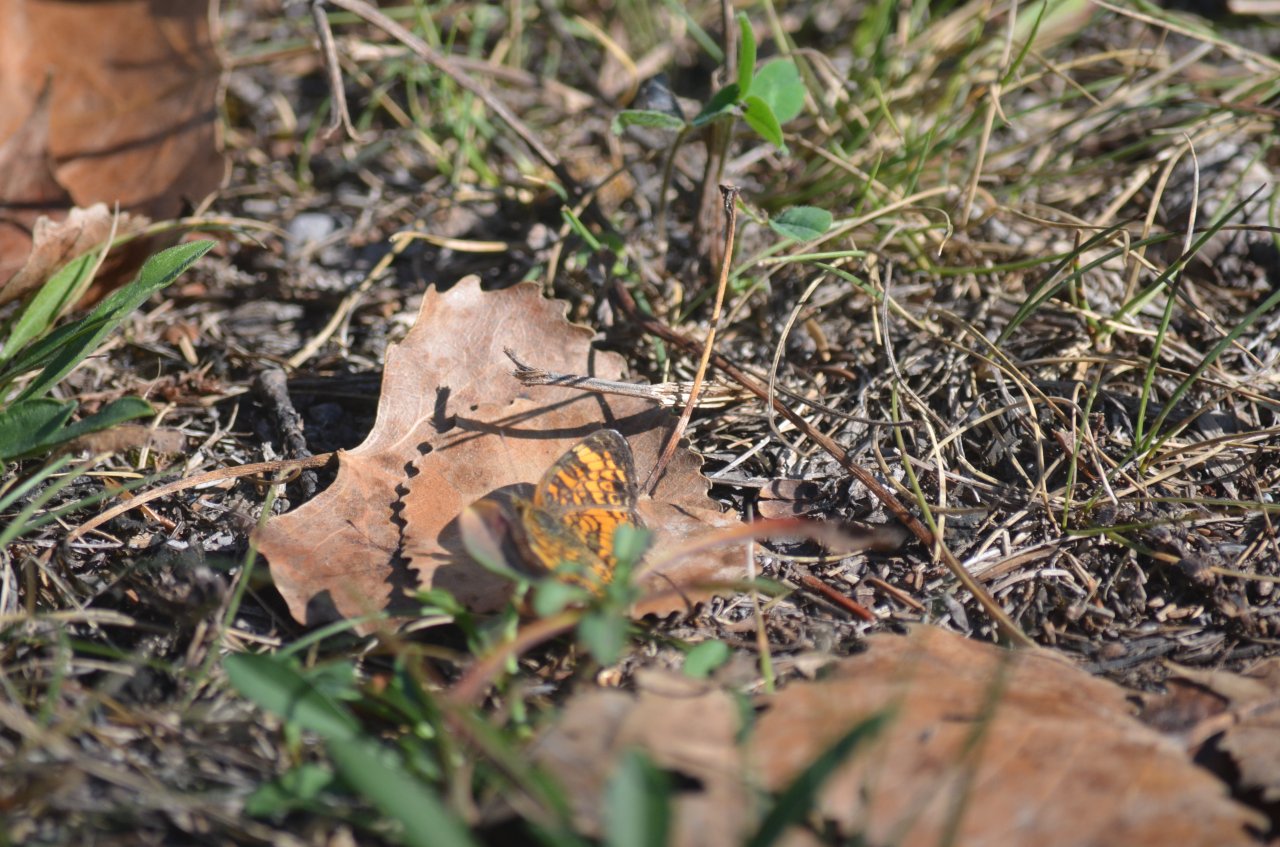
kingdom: Animalia
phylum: Arthropoda
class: Insecta
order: Lepidoptera
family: Nymphalidae
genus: Phyciodes
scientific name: Phyciodes tharos
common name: Northern Crescent
